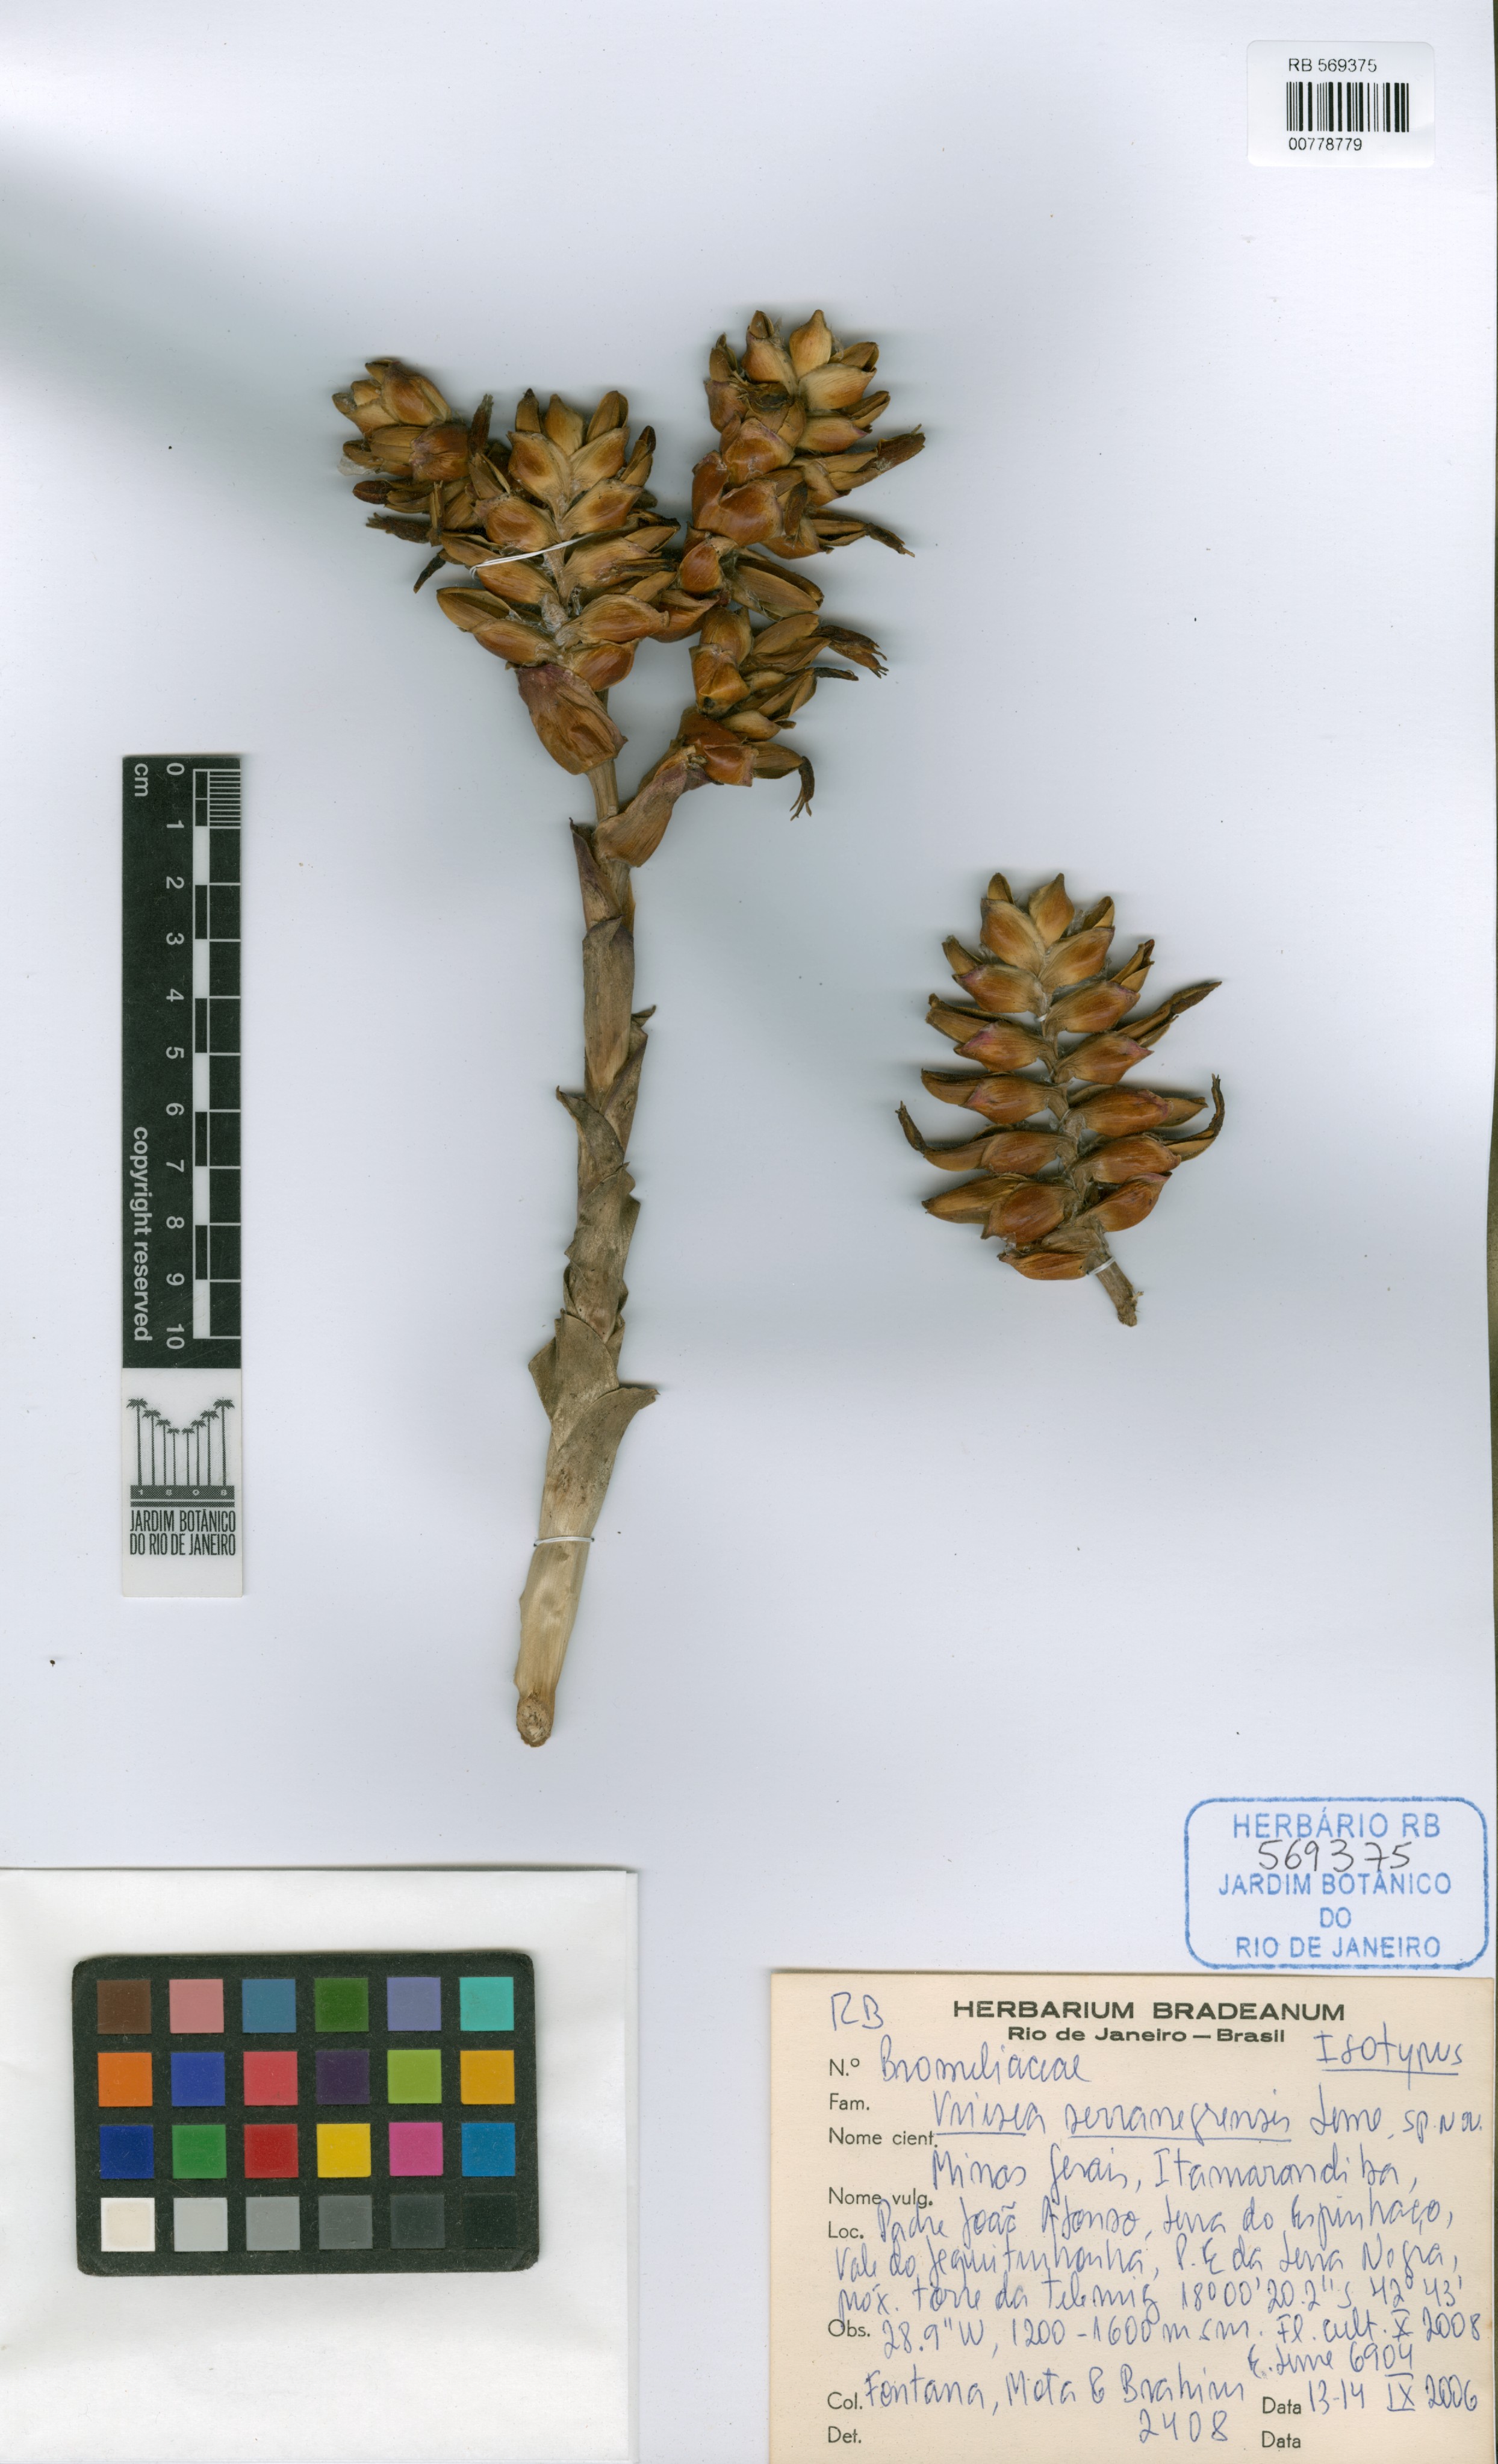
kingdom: Plantae
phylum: Tracheophyta
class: Liliopsida
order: Poales
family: Bromeliaceae
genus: Vriesea
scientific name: Vriesea serranegrensis
